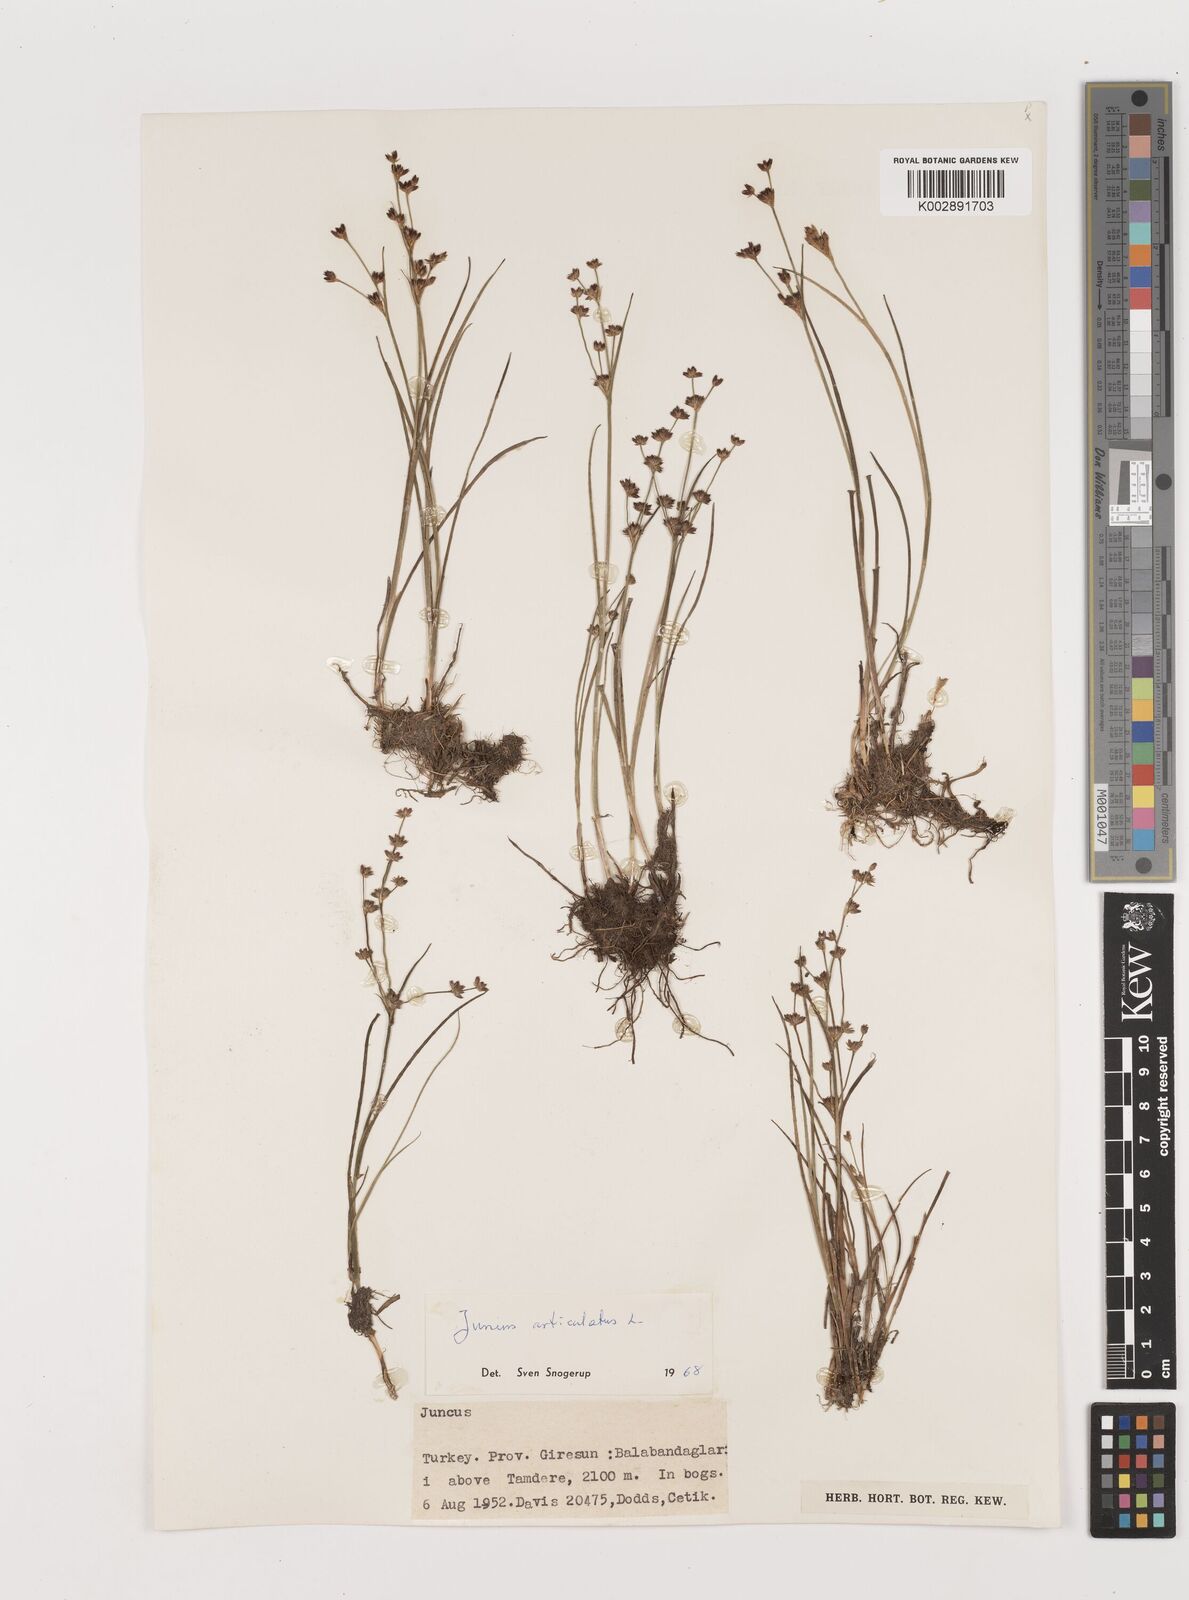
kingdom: Plantae
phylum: Tracheophyta
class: Liliopsida
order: Poales
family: Juncaceae
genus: Juncus
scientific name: Juncus articulatus
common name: Jointed rush
